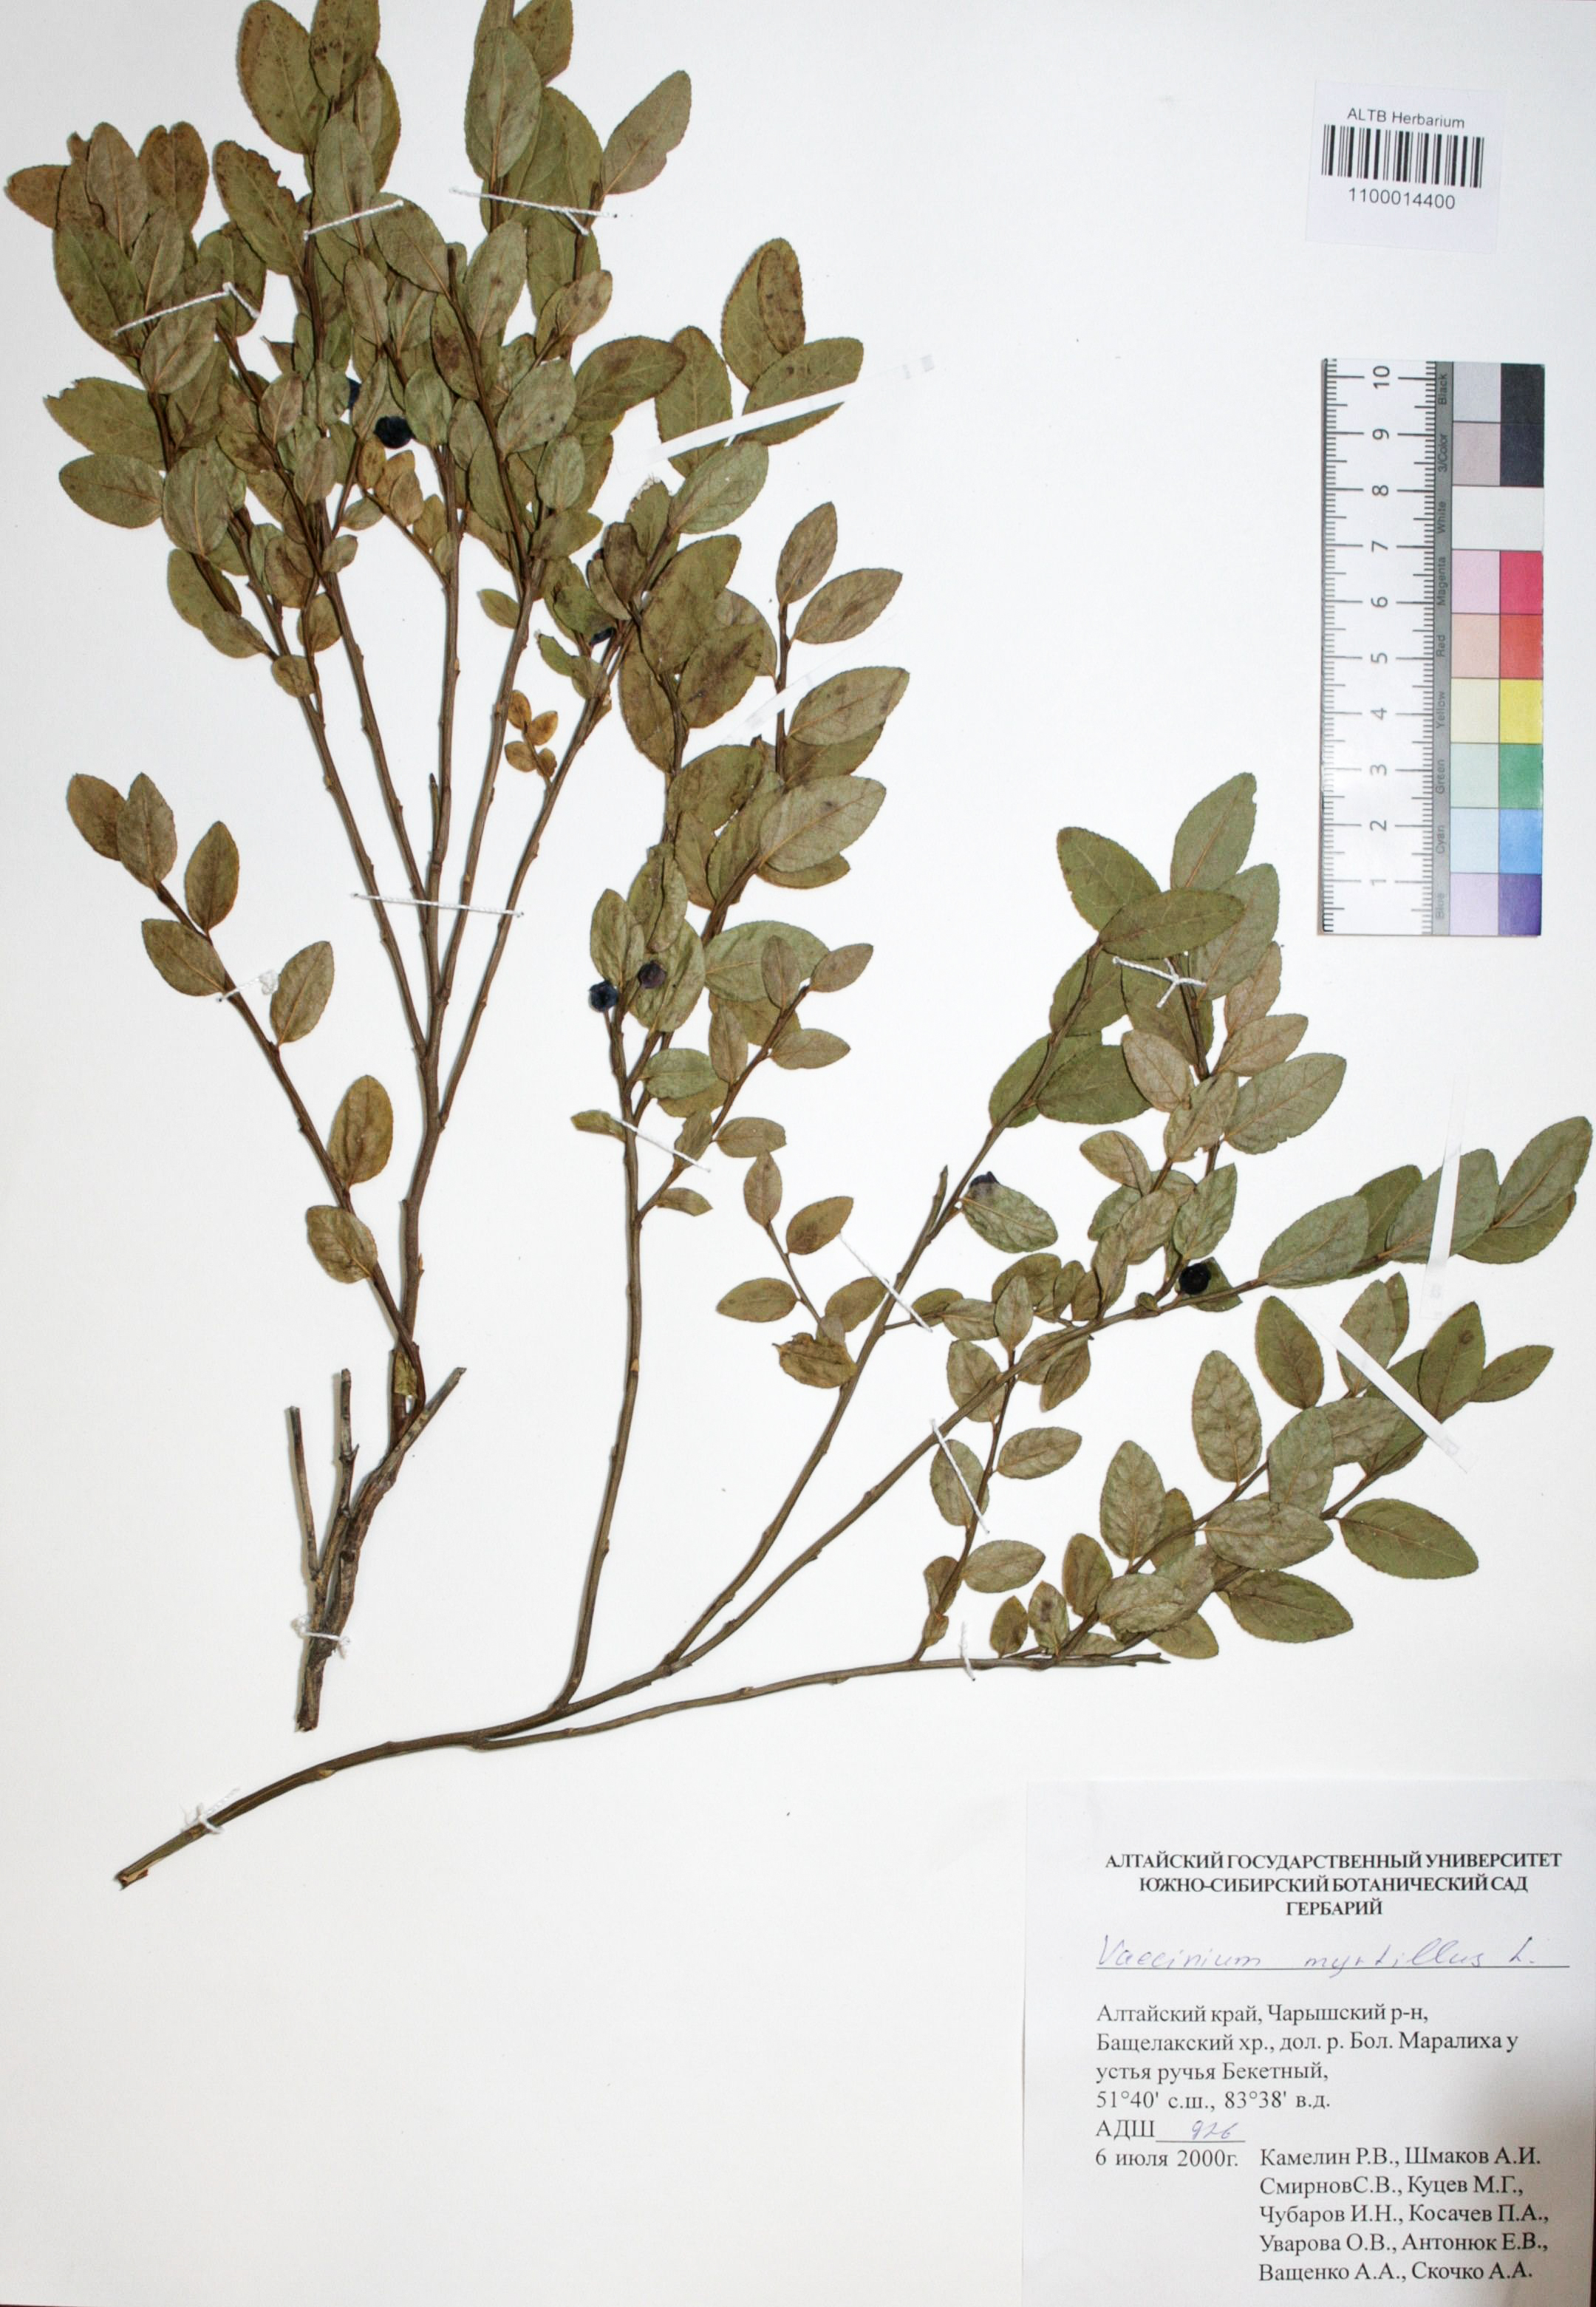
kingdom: Plantae
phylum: Tracheophyta
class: Magnoliopsida
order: Ericales
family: Ericaceae
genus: Vaccinium
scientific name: Vaccinium myrtillus
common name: Bilberry
